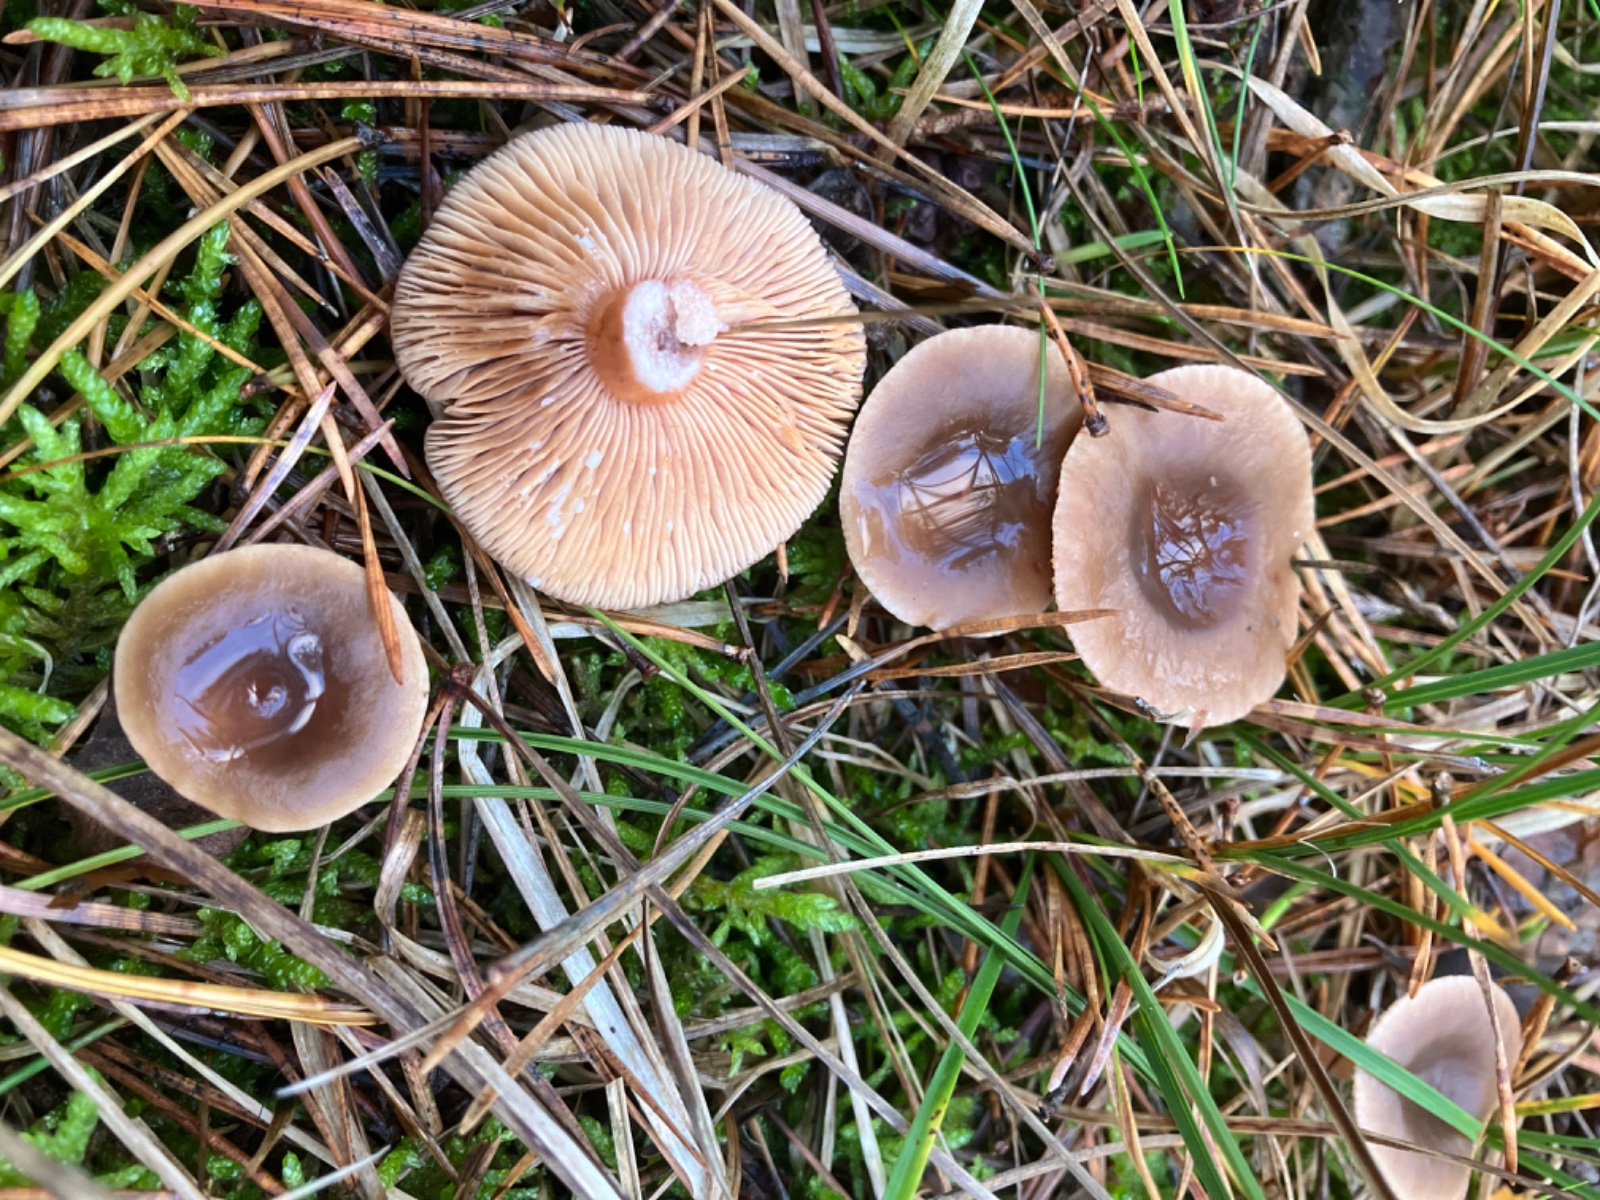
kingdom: Fungi
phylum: Basidiomycota
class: Agaricomycetes
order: Russulales
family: Russulaceae
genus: Lactarius
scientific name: Lactarius hepaticus
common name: leverbrun mælkehat
